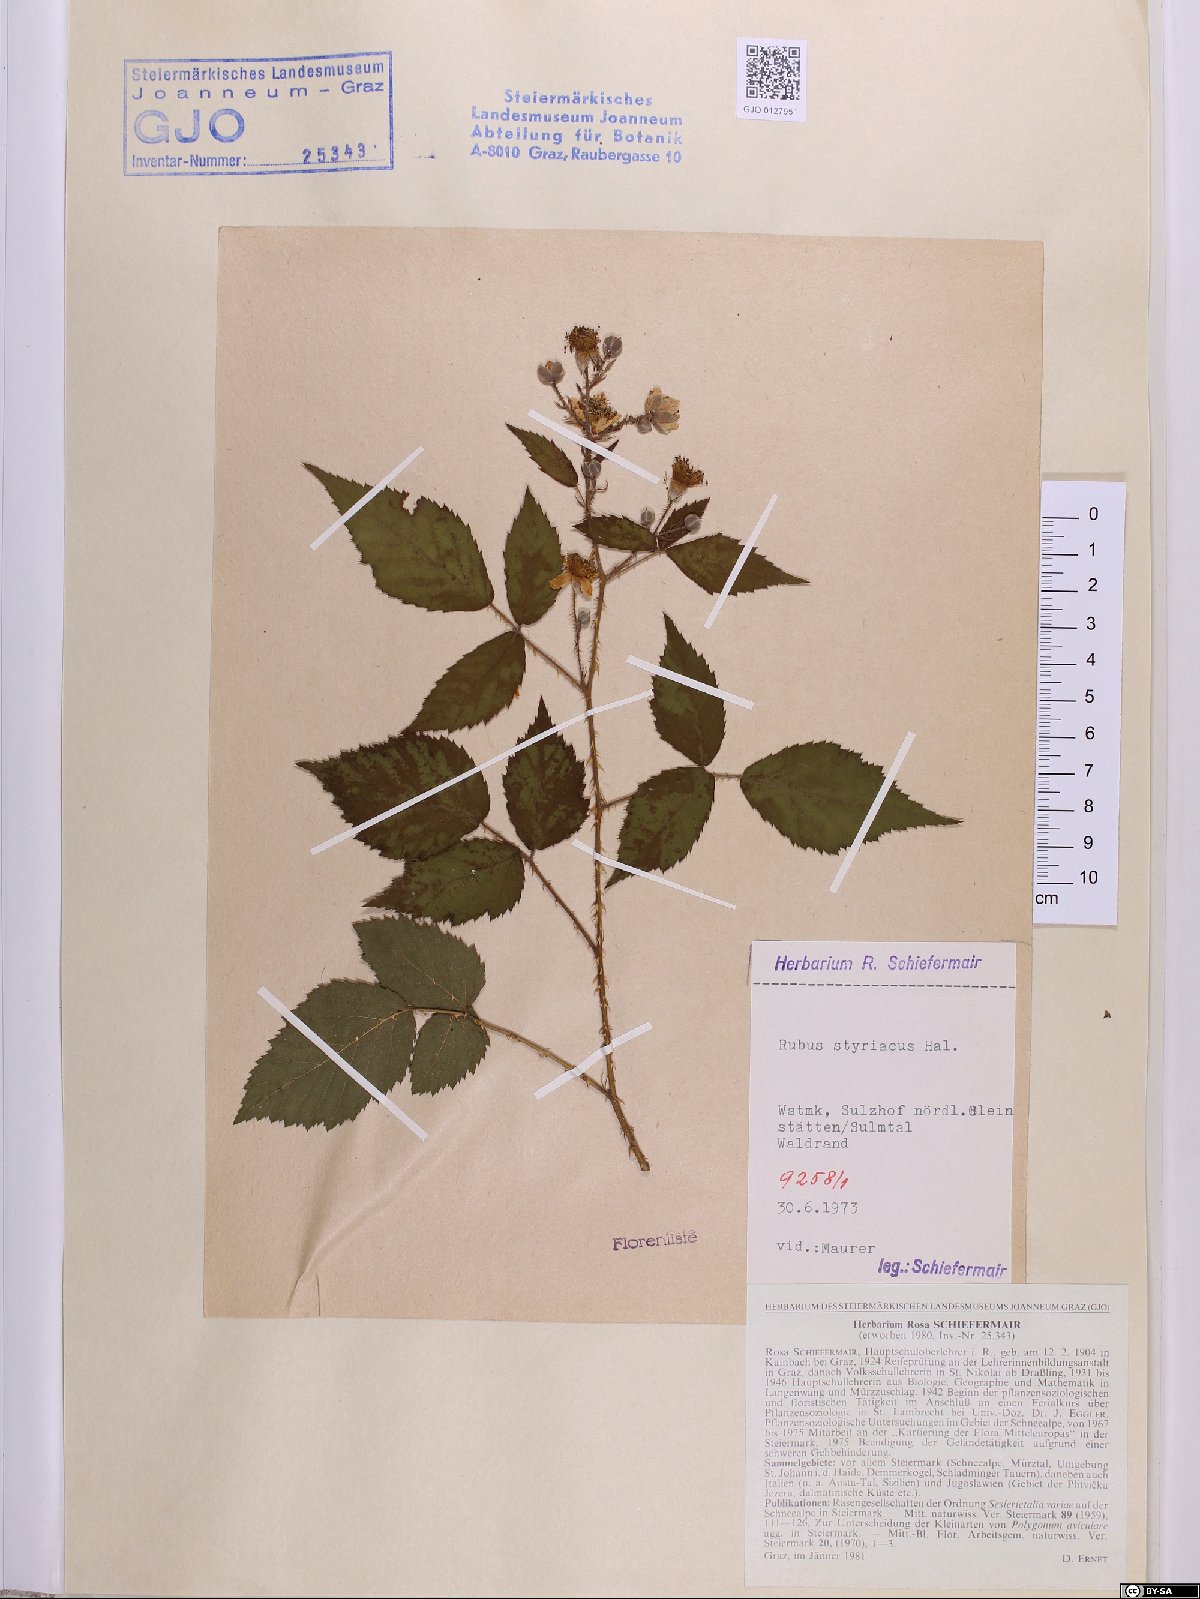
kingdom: Plantae
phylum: Tracheophyta
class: Magnoliopsida
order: Rosales
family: Rosaceae
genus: Rubus
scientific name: Rubus styriacus
